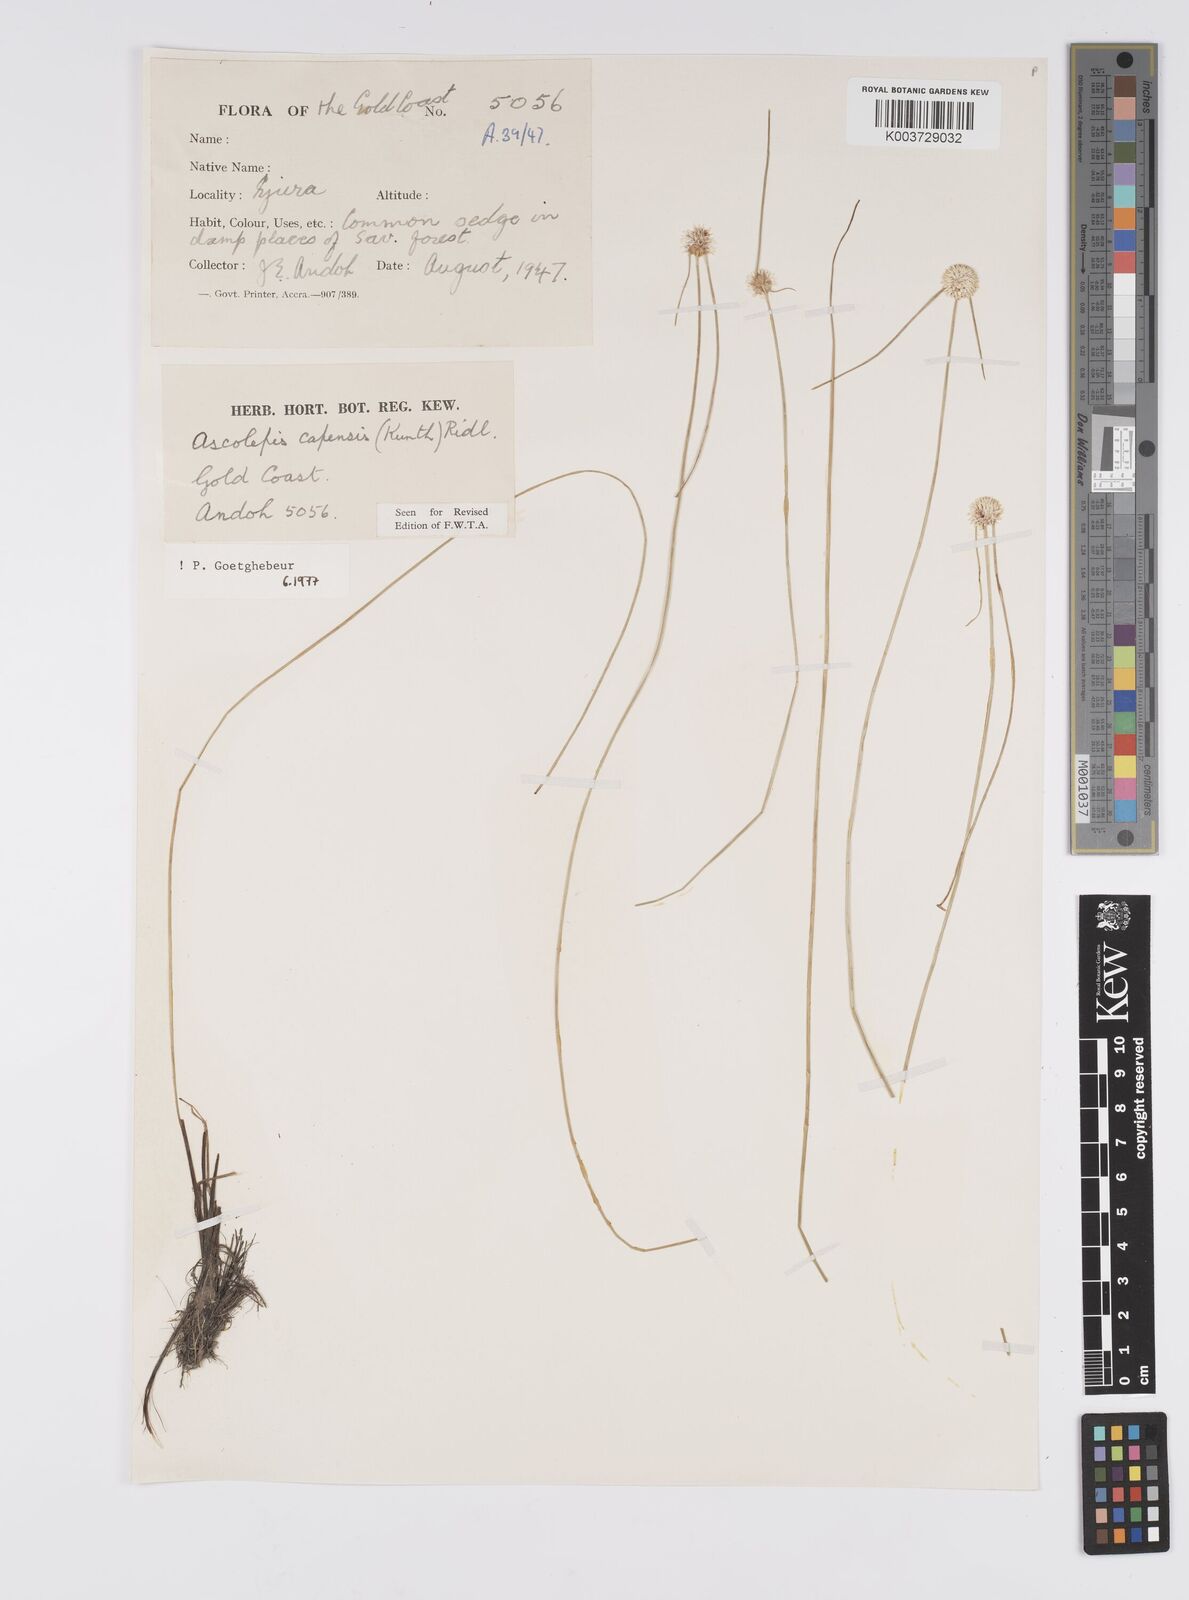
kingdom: Plantae
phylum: Tracheophyta
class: Liliopsida
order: Poales
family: Cyperaceae
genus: Ascolepis
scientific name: Ascolepis
